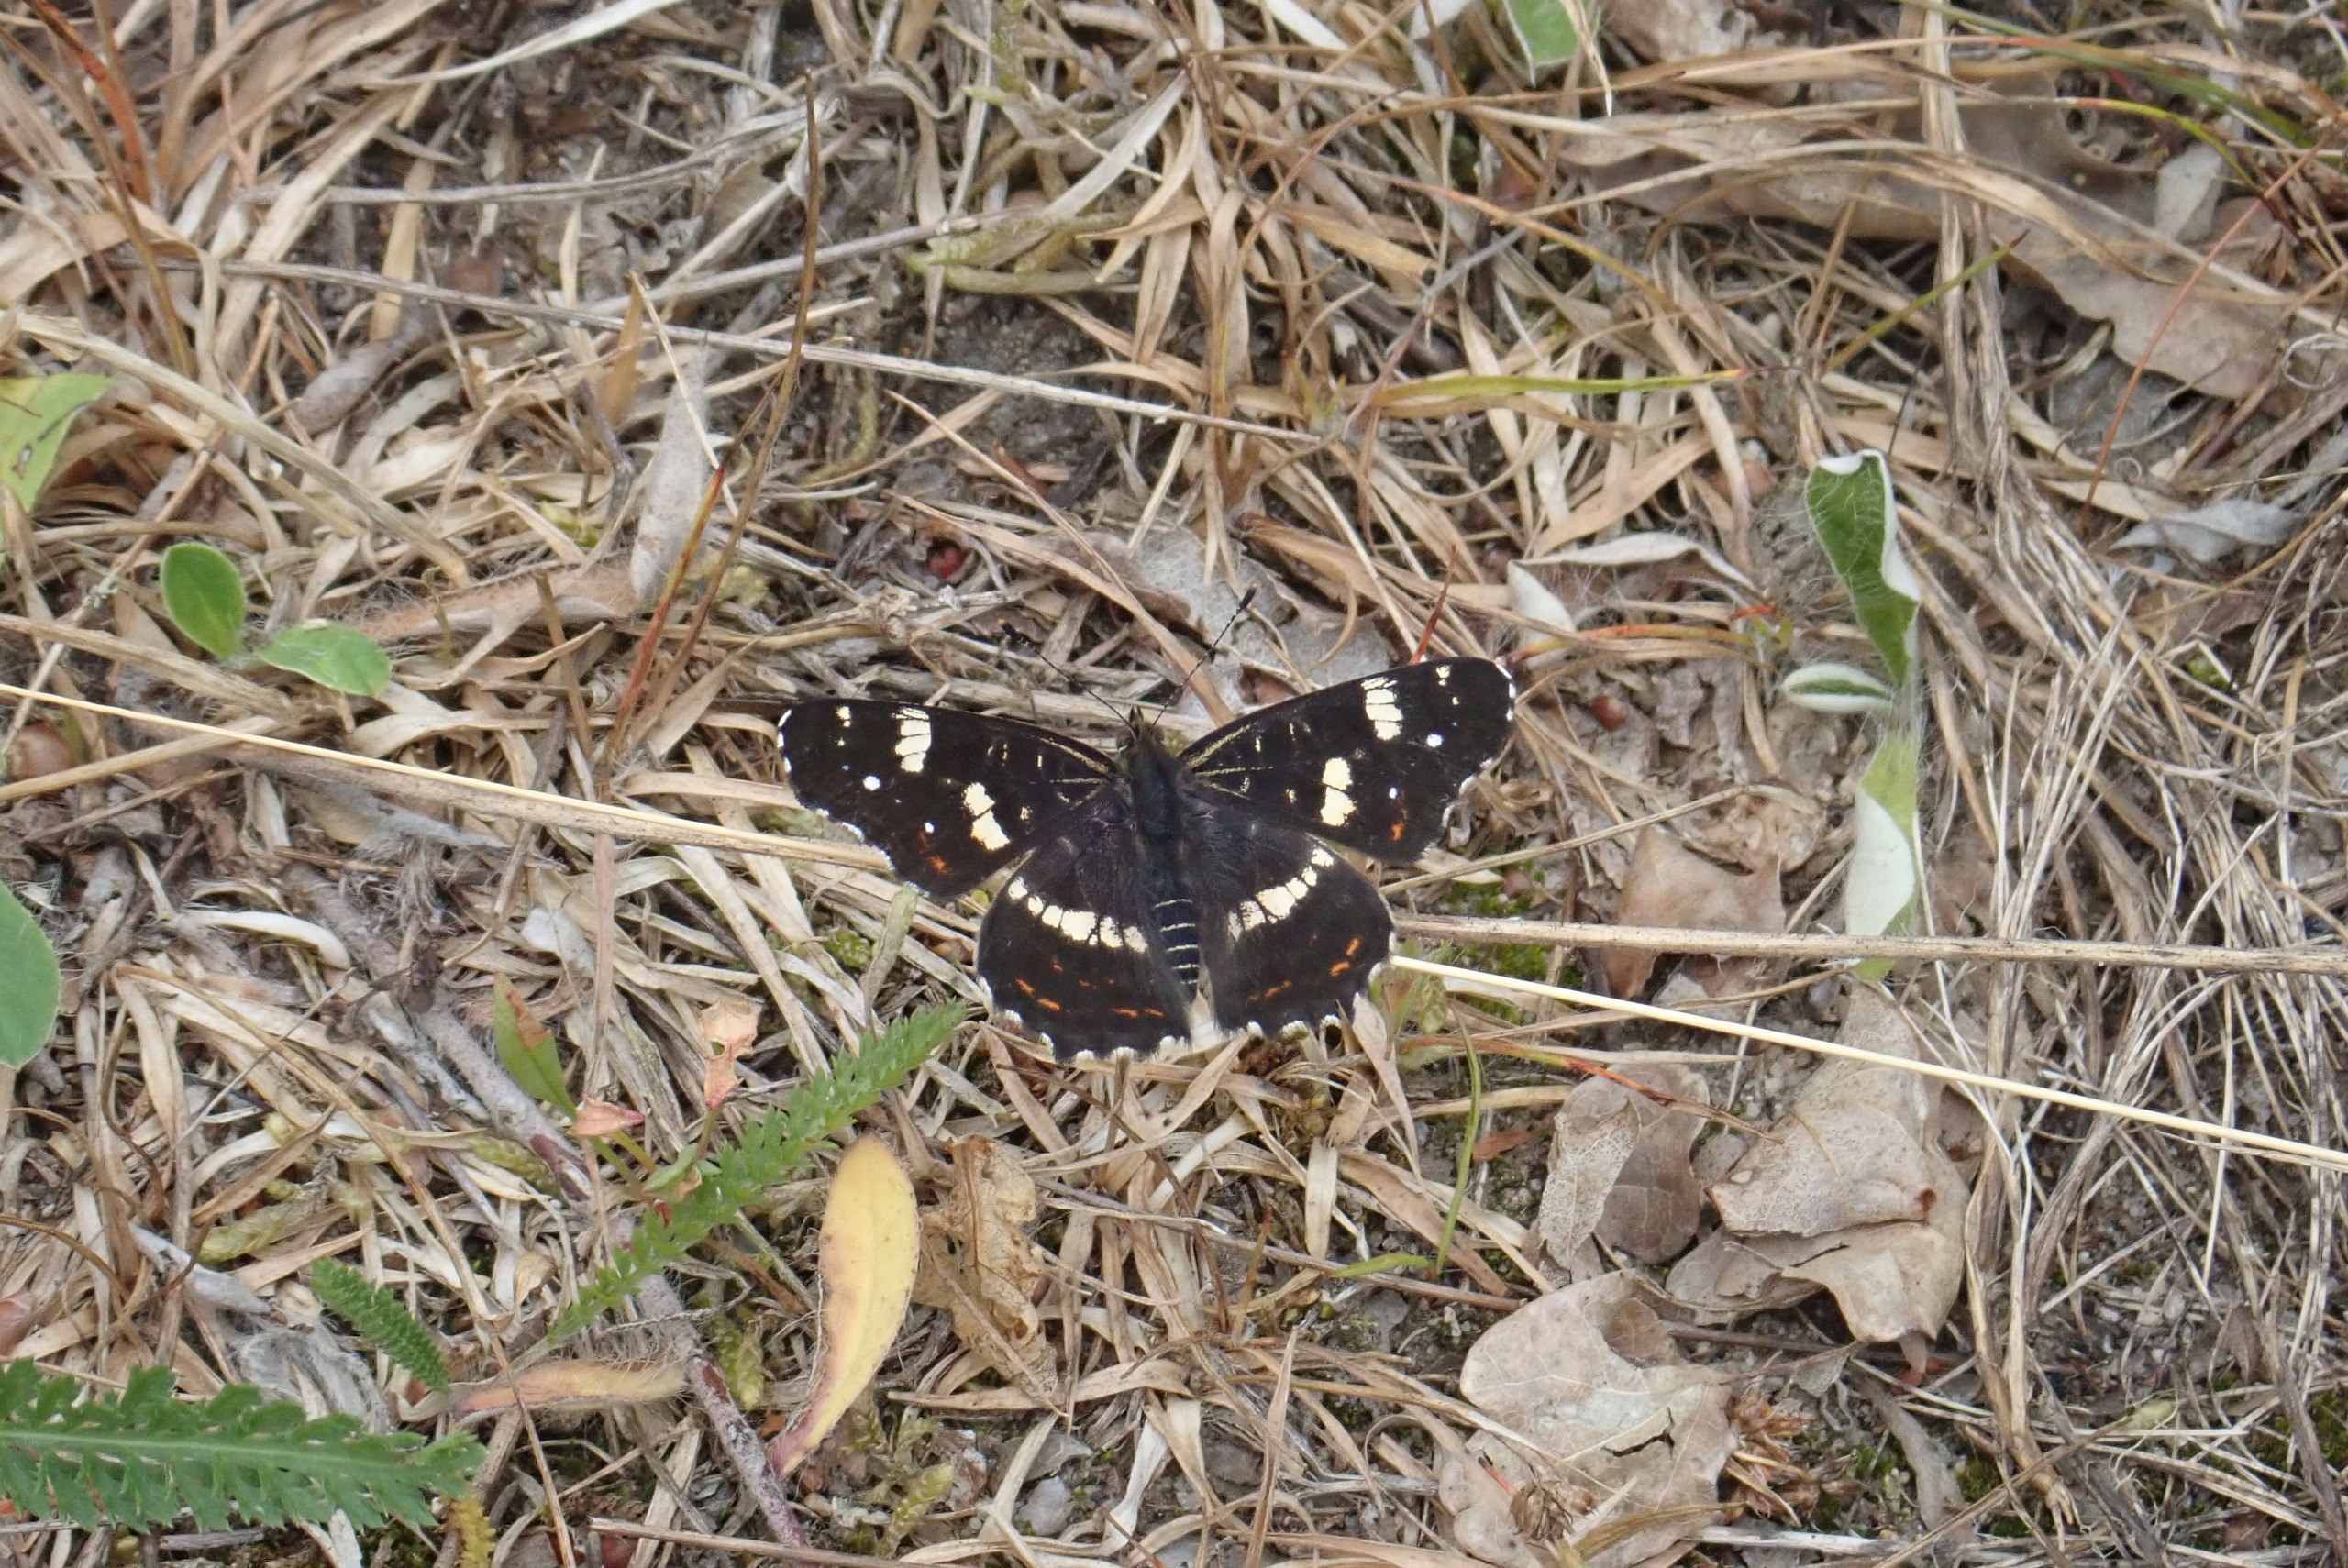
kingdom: Animalia
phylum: Arthropoda
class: Insecta
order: Lepidoptera
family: Nymphalidae
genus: Araschnia
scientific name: Araschnia levana
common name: Nældesommerfugl
